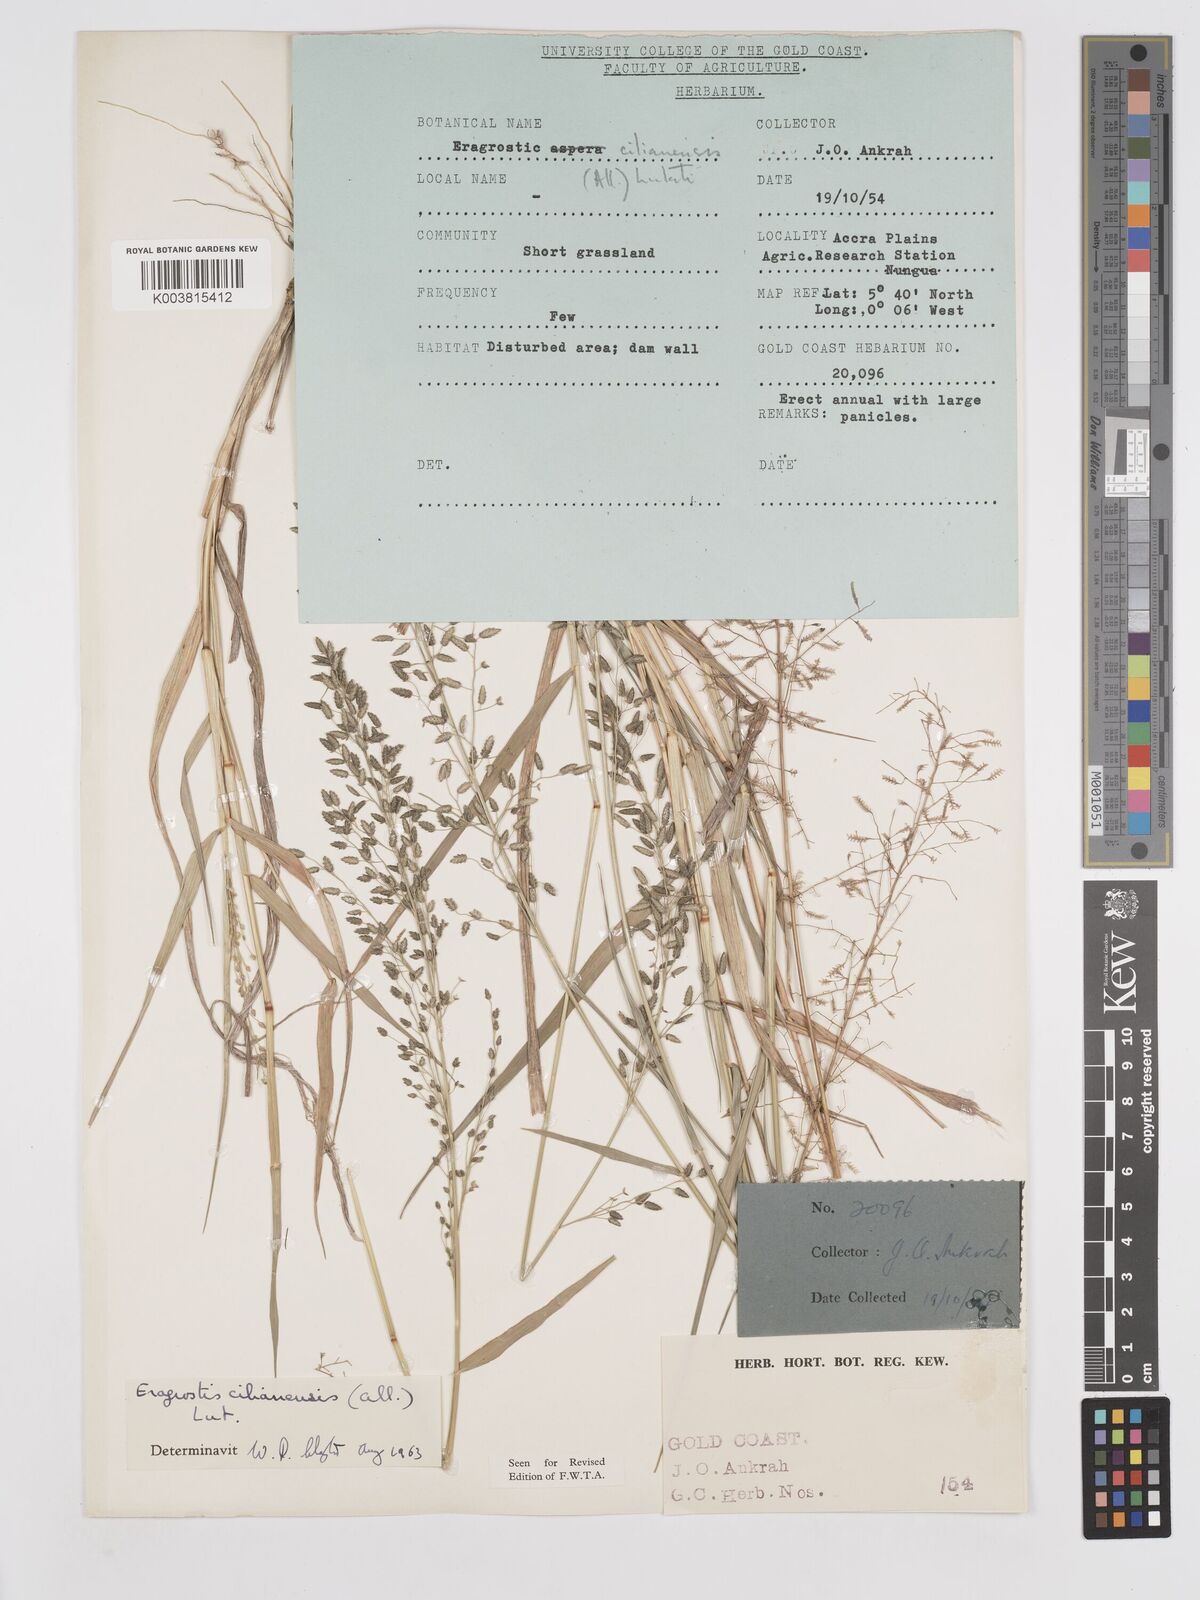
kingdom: Plantae
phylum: Tracheophyta
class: Liliopsida
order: Poales
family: Poaceae
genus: Eragrostis
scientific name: Eragrostis cilianensis
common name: Stinkgrass
